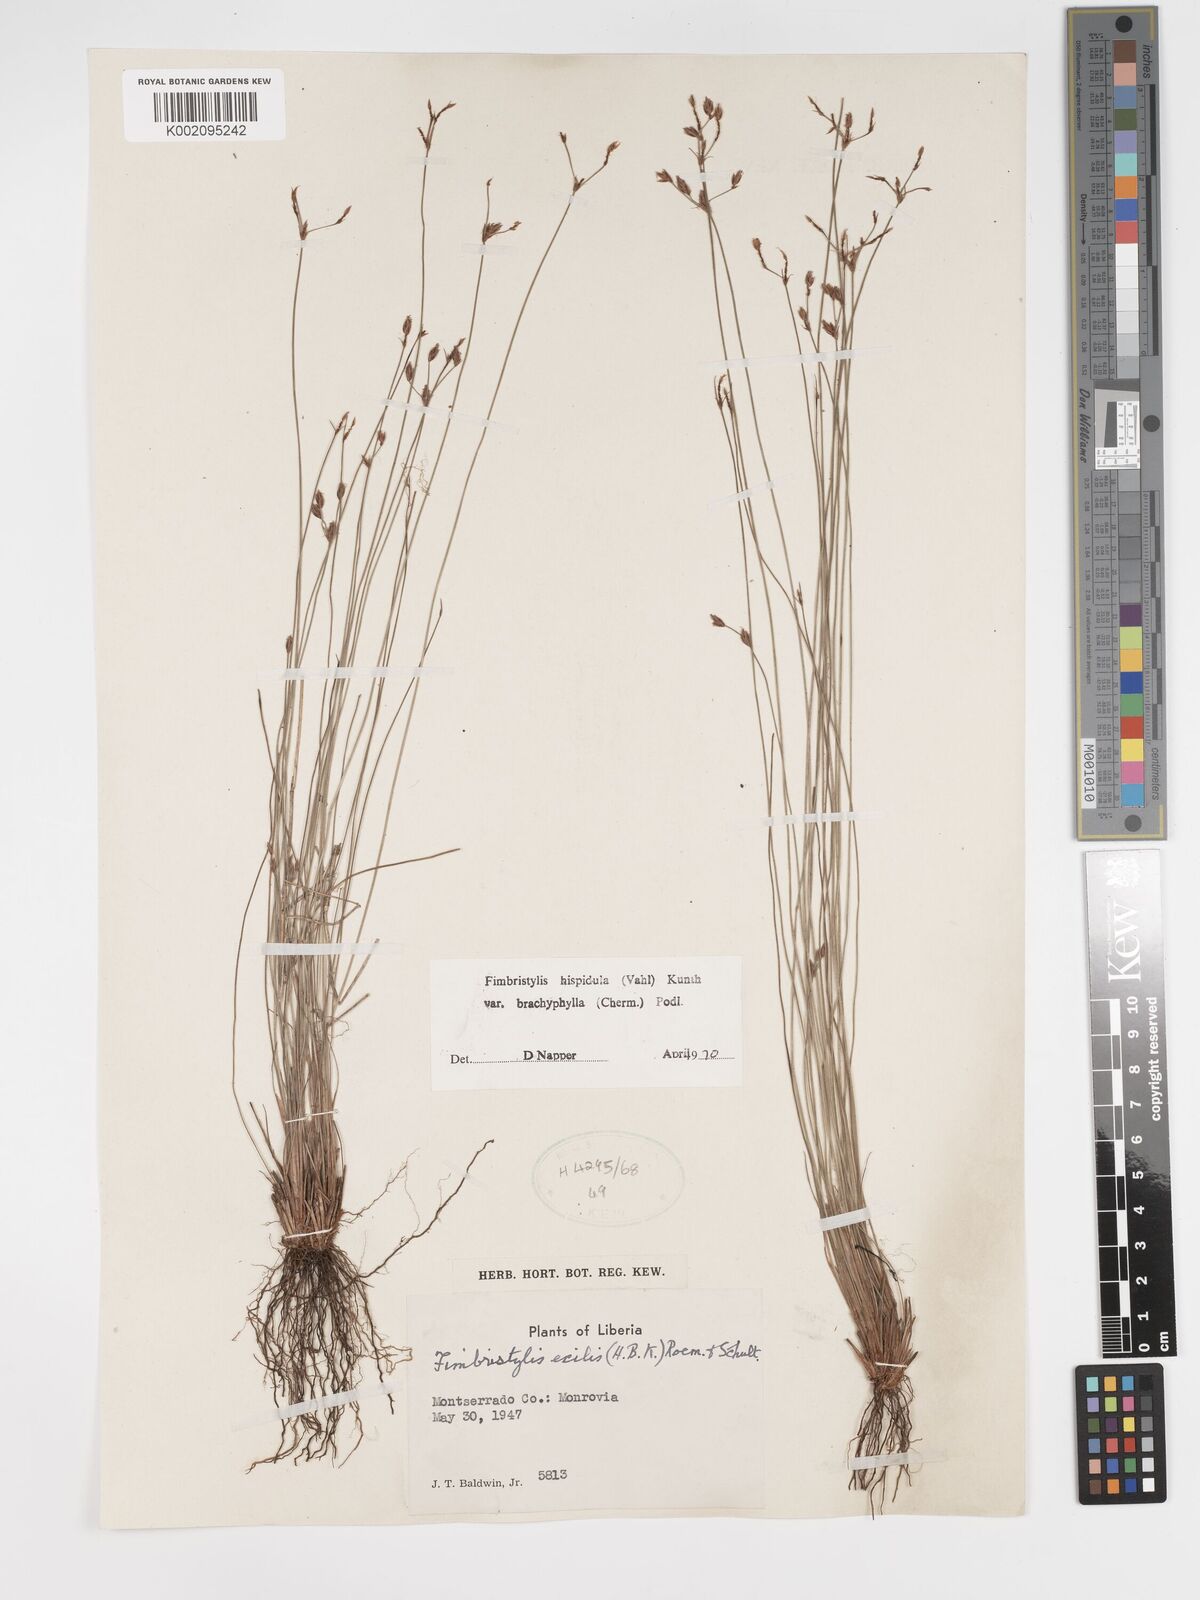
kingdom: Plantae
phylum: Tracheophyta
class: Liliopsida
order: Poales
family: Cyperaceae
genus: Bulbostylis
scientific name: Bulbostylis hispidula
